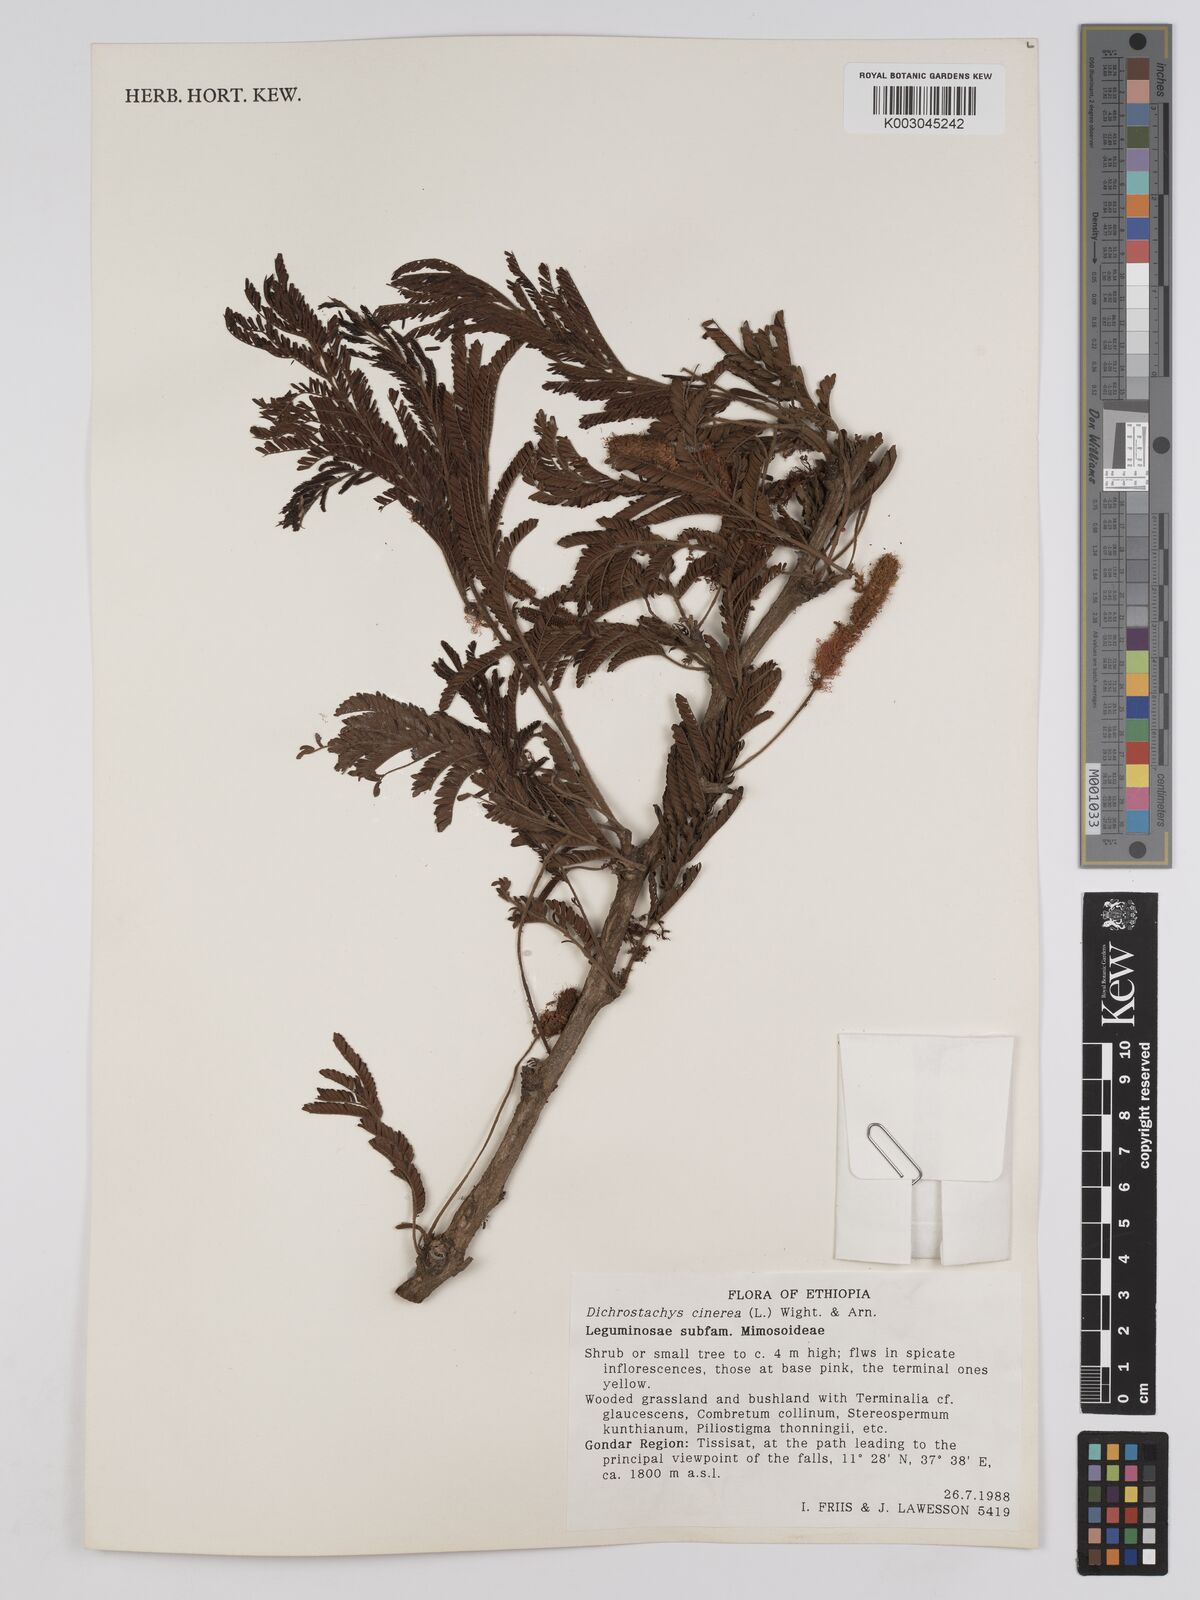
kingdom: Plantae
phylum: Tracheophyta
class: Magnoliopsida
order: Fabales
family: Fabaceae
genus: Dichrostachys
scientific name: Dichrostachys cinerea
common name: Sicklebush
